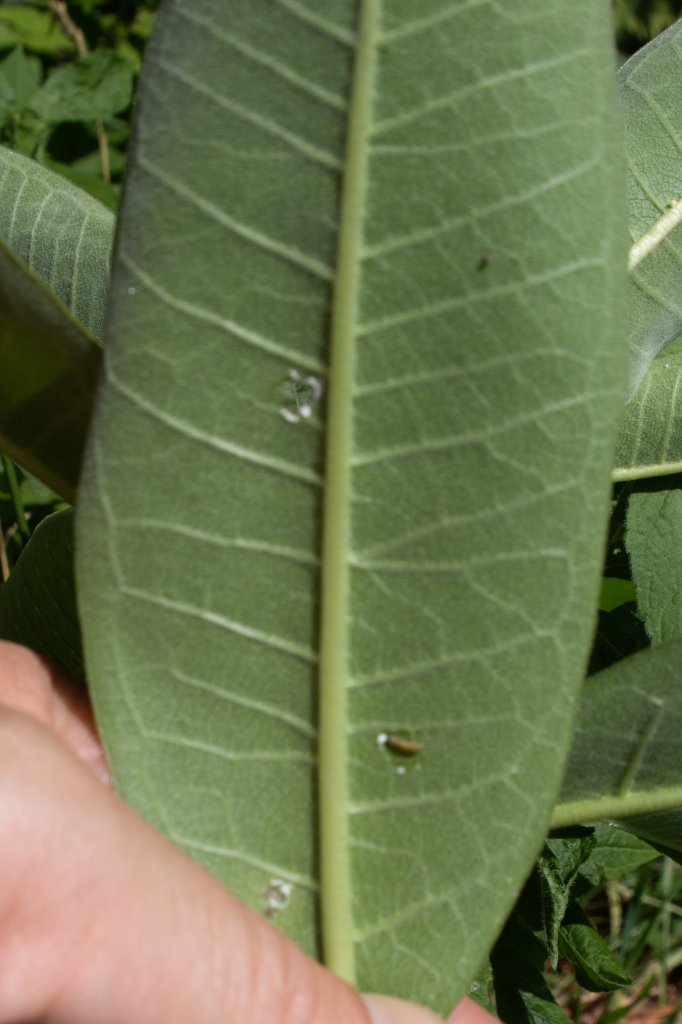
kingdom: Animalia
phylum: Arthropoda
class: Insecta
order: Lepidoptera
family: Nymphalidae
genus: Danaus
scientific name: Danaus plexippus
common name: Monarch
